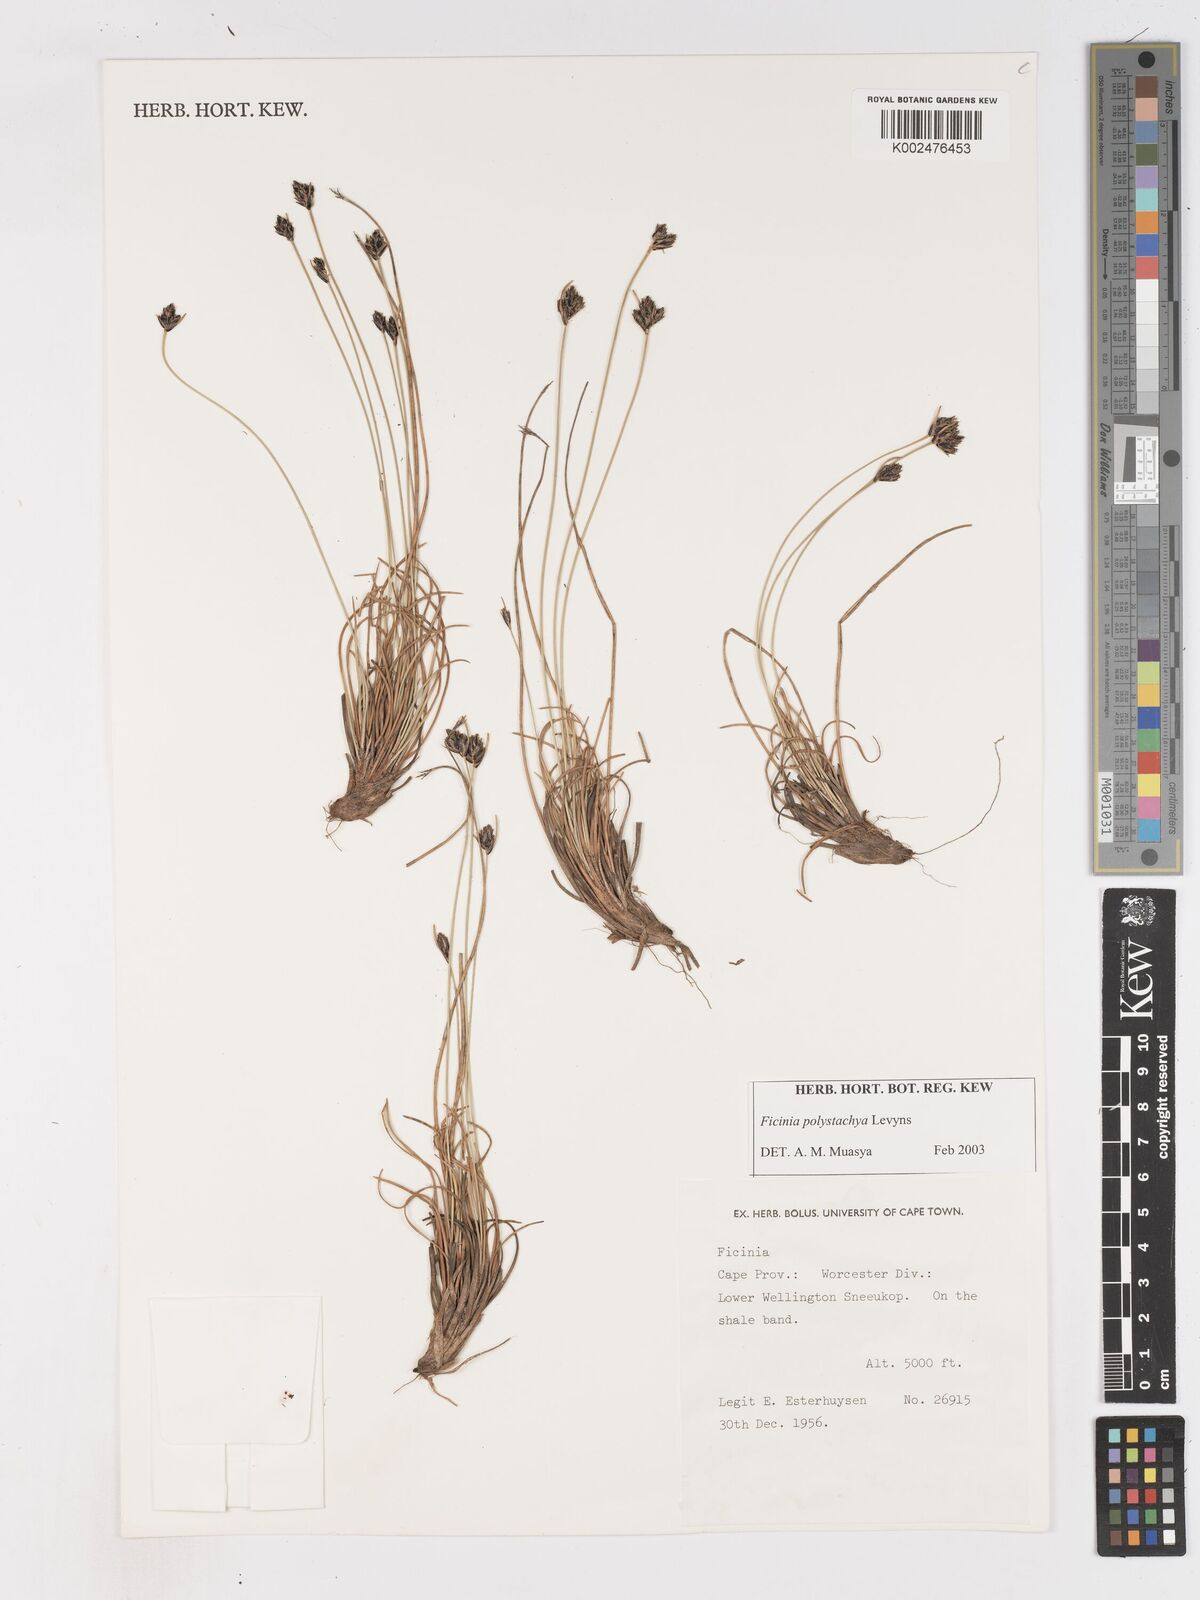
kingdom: Plantae
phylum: Tracheophyta
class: Liliopsida
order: Poales
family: Cyperaceae
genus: Ficinia
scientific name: Ficinia polystachya
